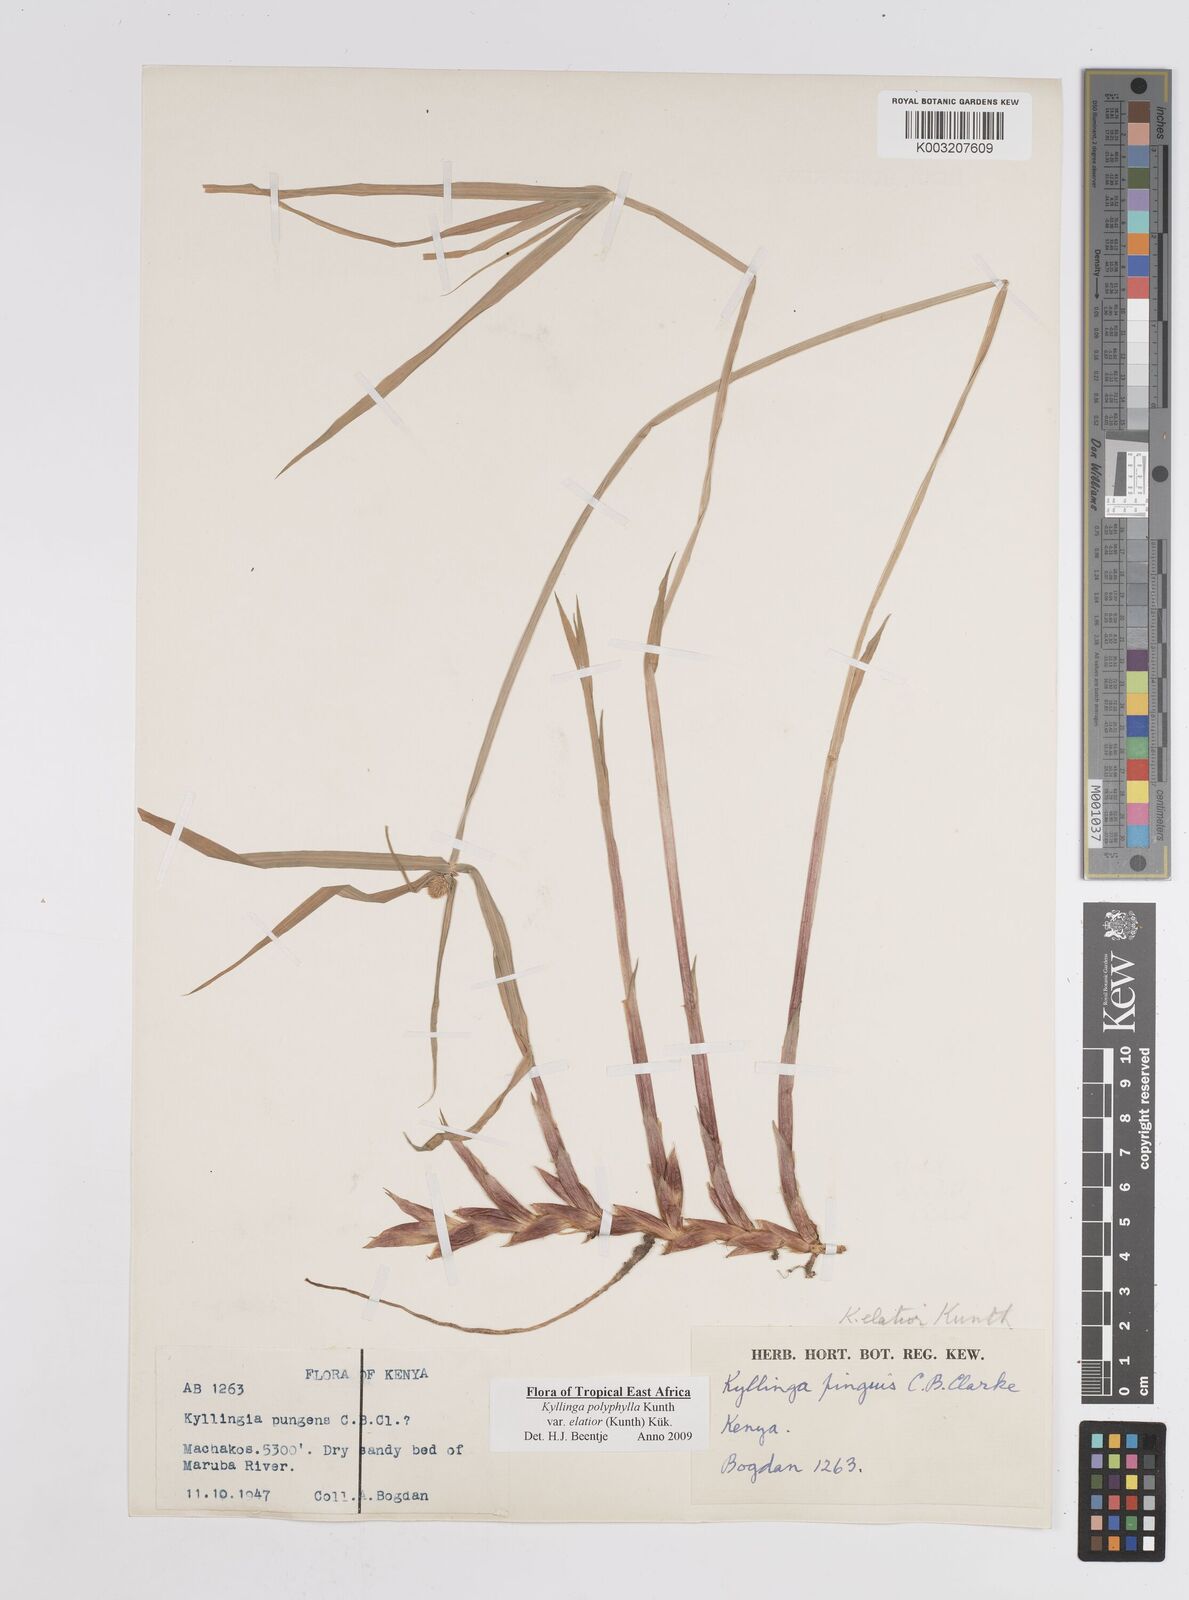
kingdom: Plantae
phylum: Tracheophyta
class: Liliopsida
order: Poales
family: Cyperaceae
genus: Cyperus
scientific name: Cyperus
